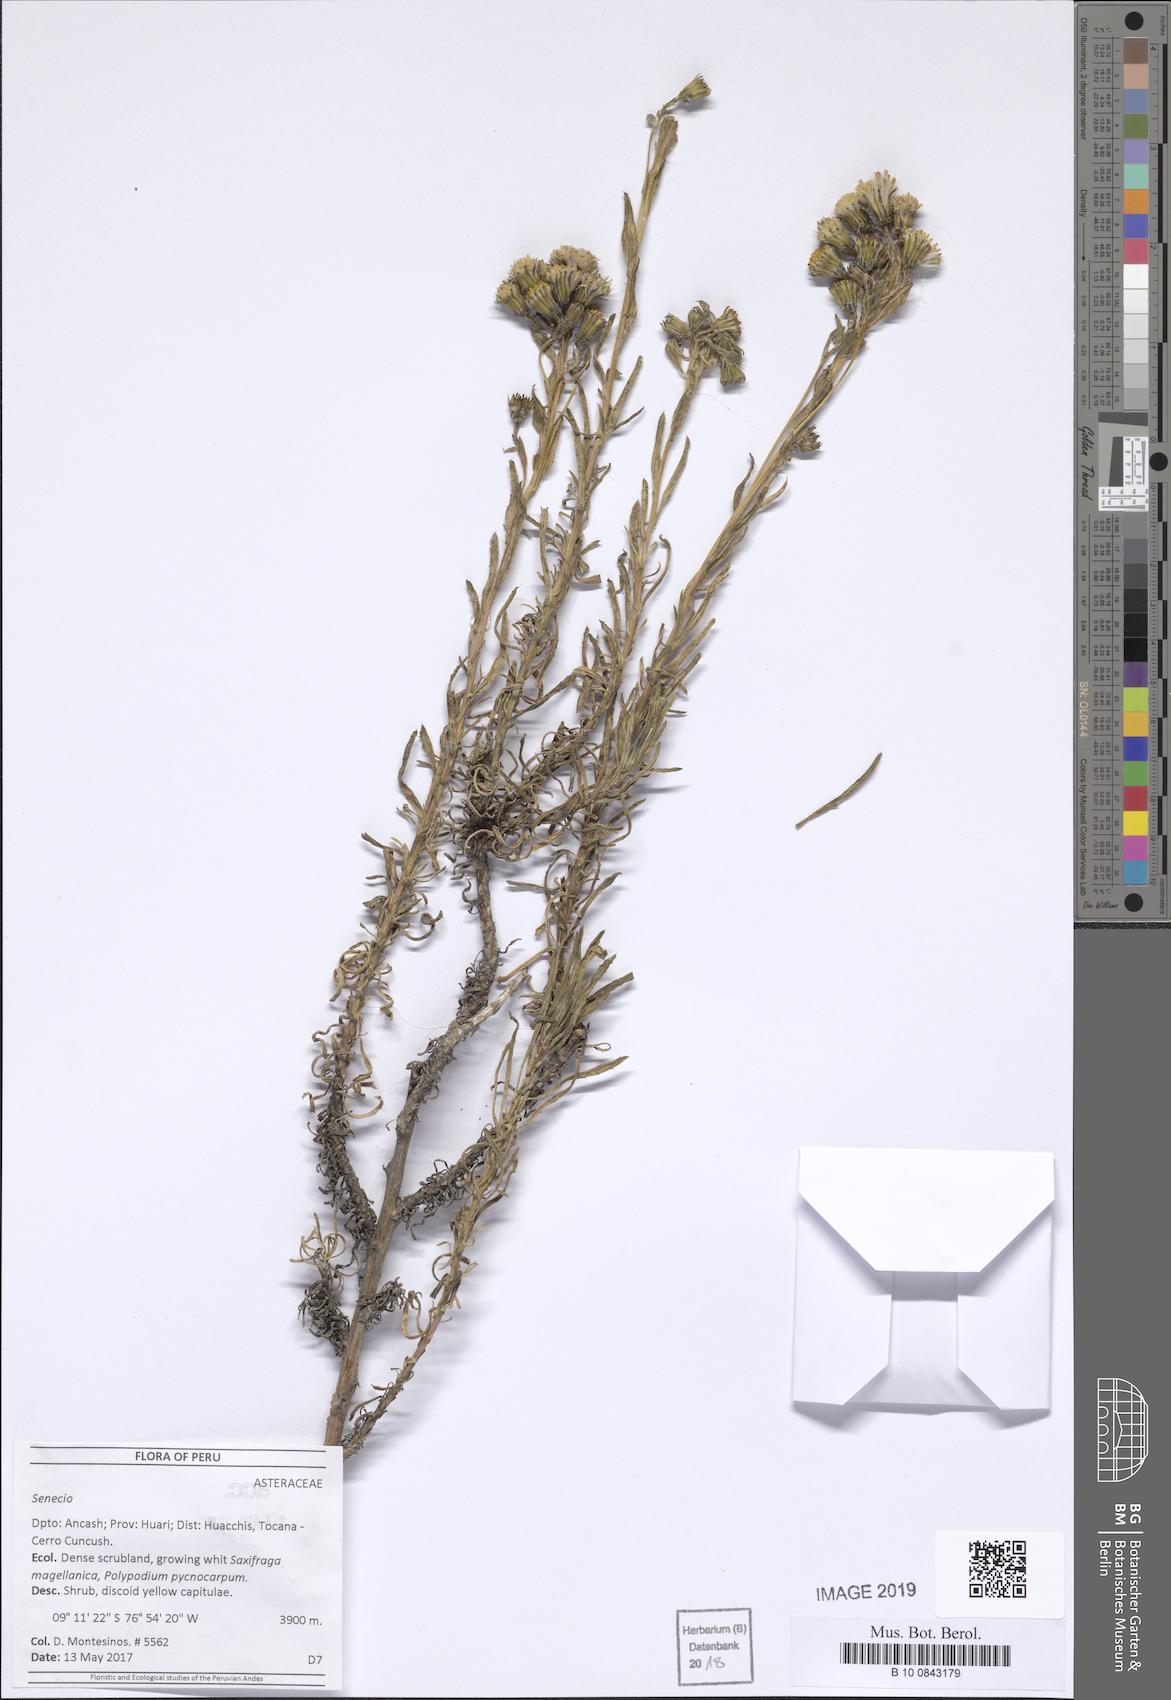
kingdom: Plantae
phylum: Tracheophyta
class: Magnoliopsida
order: Asterales
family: Asteraceae
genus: Senecio
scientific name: Senecio collinus
